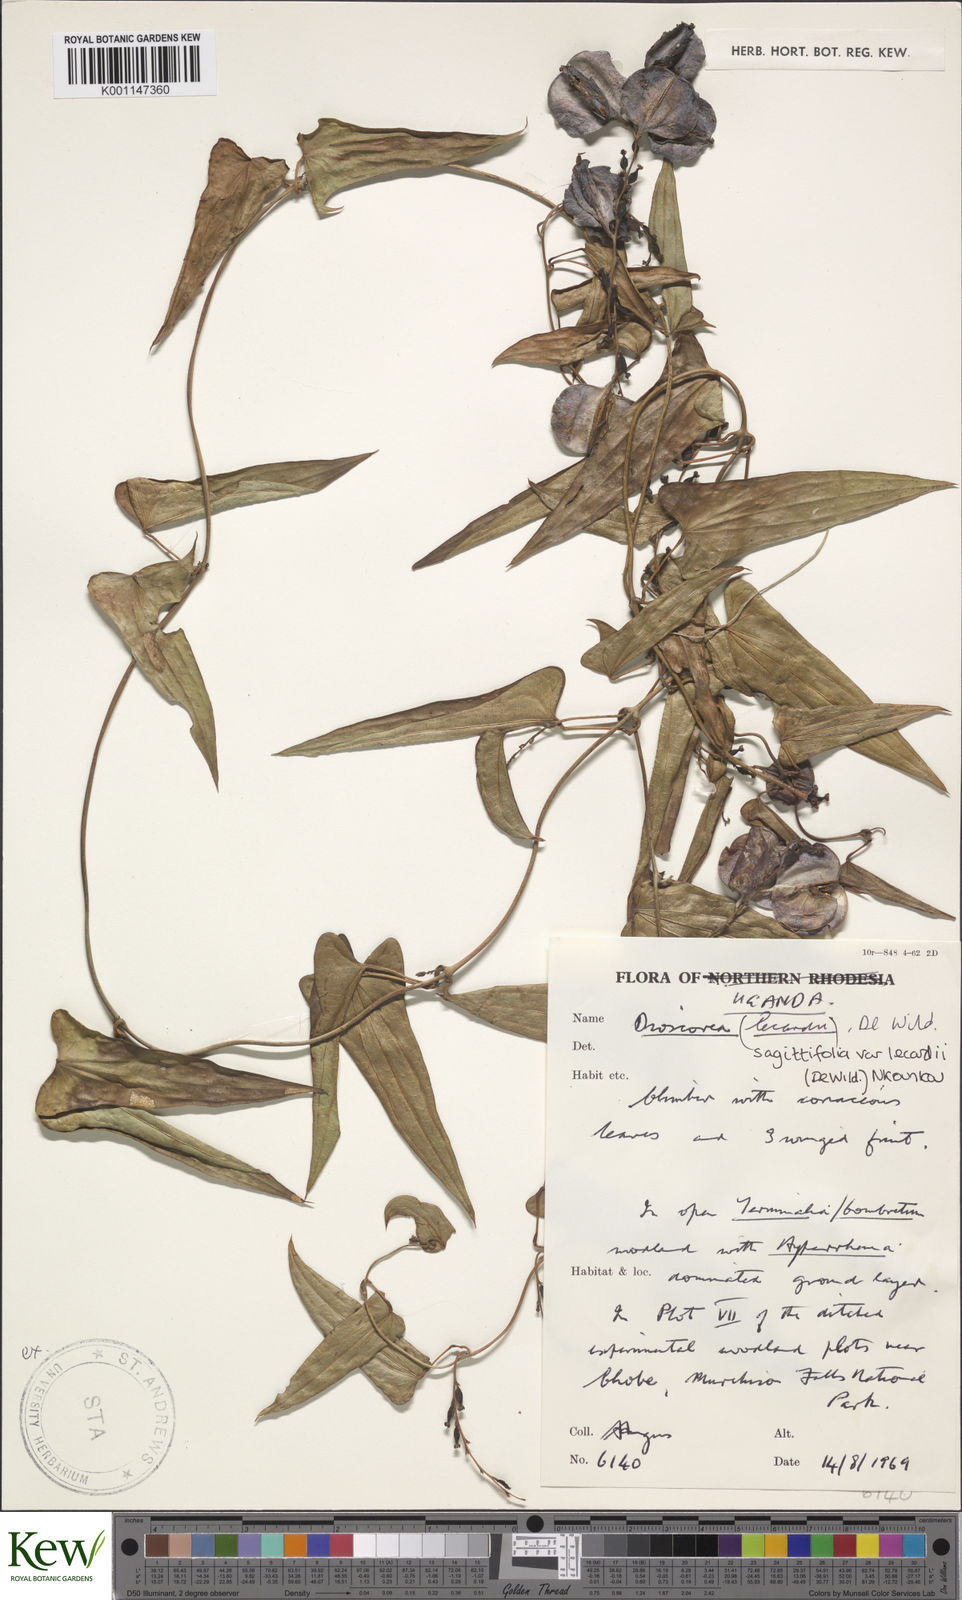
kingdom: Plantae
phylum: Tracheophyta
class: Liliopsida
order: Dioscoreales
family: Dioscoreaceae
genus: Dioscorea
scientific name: Dioscorea sagittifolia
